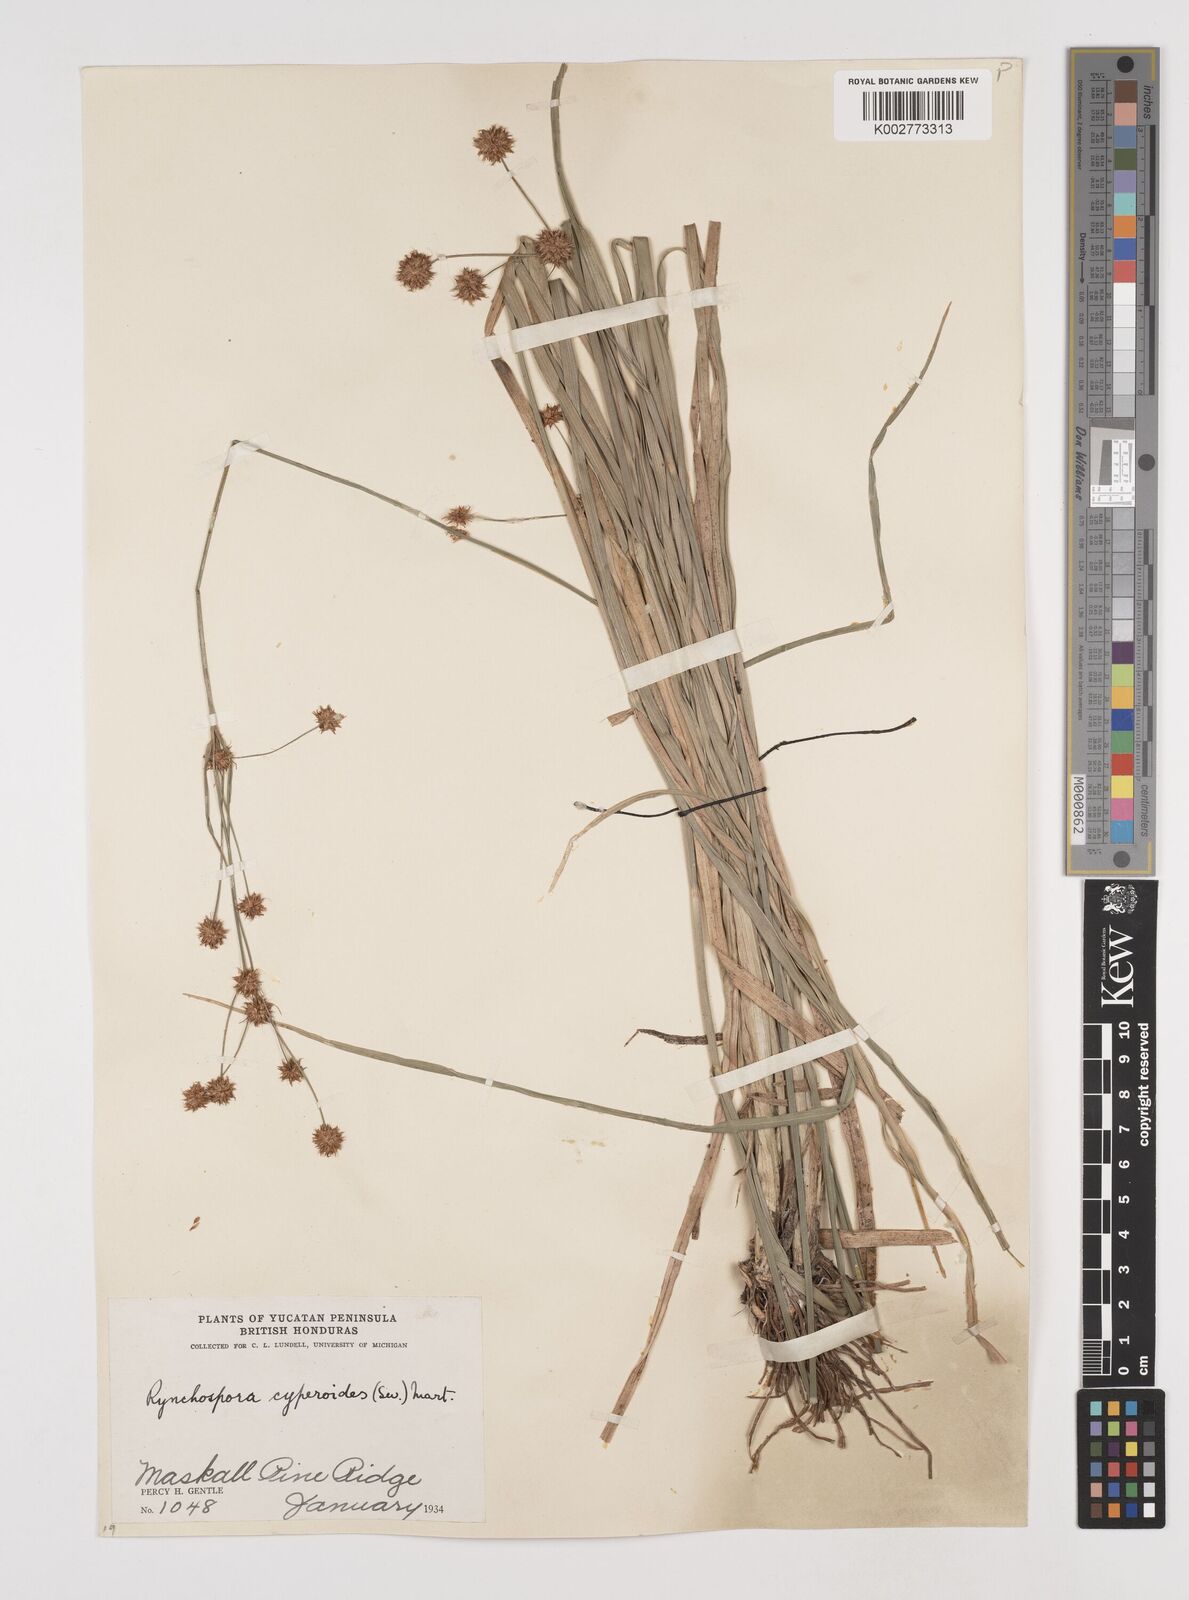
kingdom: Plantae
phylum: Tracheophyta
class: Liliopsida
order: Poales
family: Cyperaceae
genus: Rhynchospora
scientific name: Rhynchospora holoschoenoides
